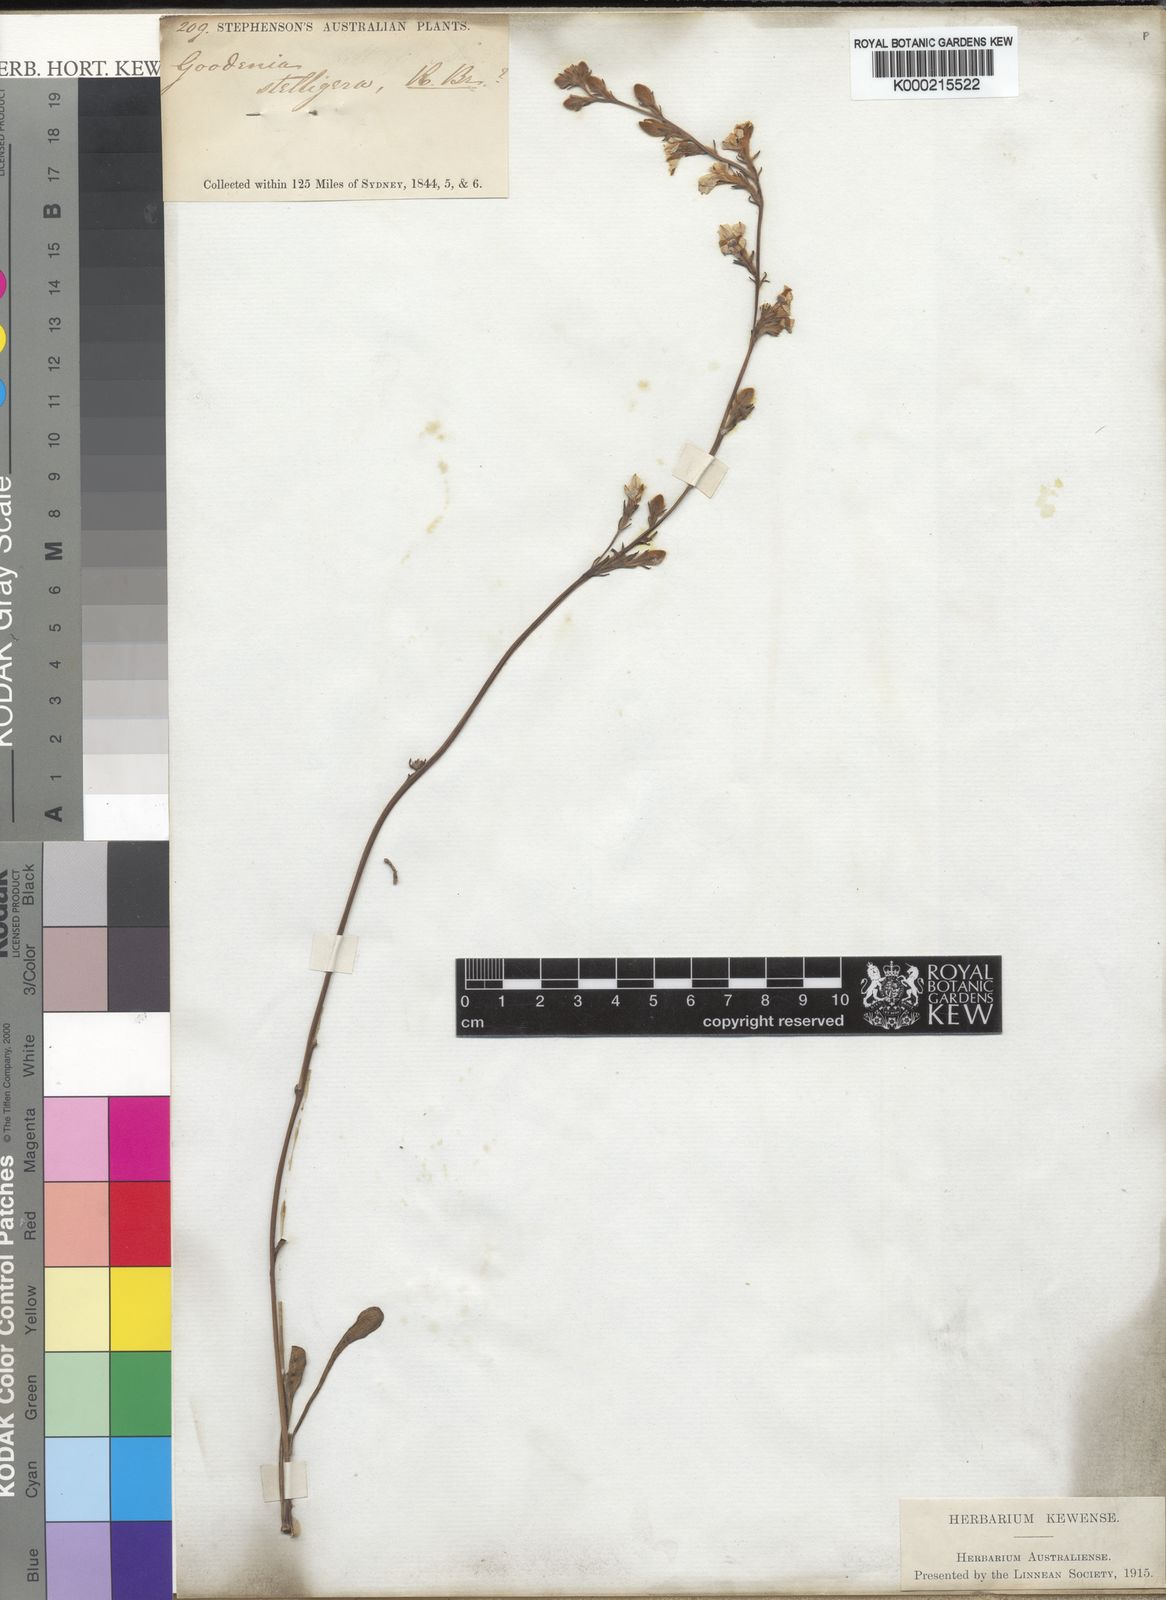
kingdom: Plantae
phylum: Tracheophyta
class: Magnoliopsida
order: Asterales
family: Goodeniaceae
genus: Goodenia
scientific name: Goodenia stelligera
